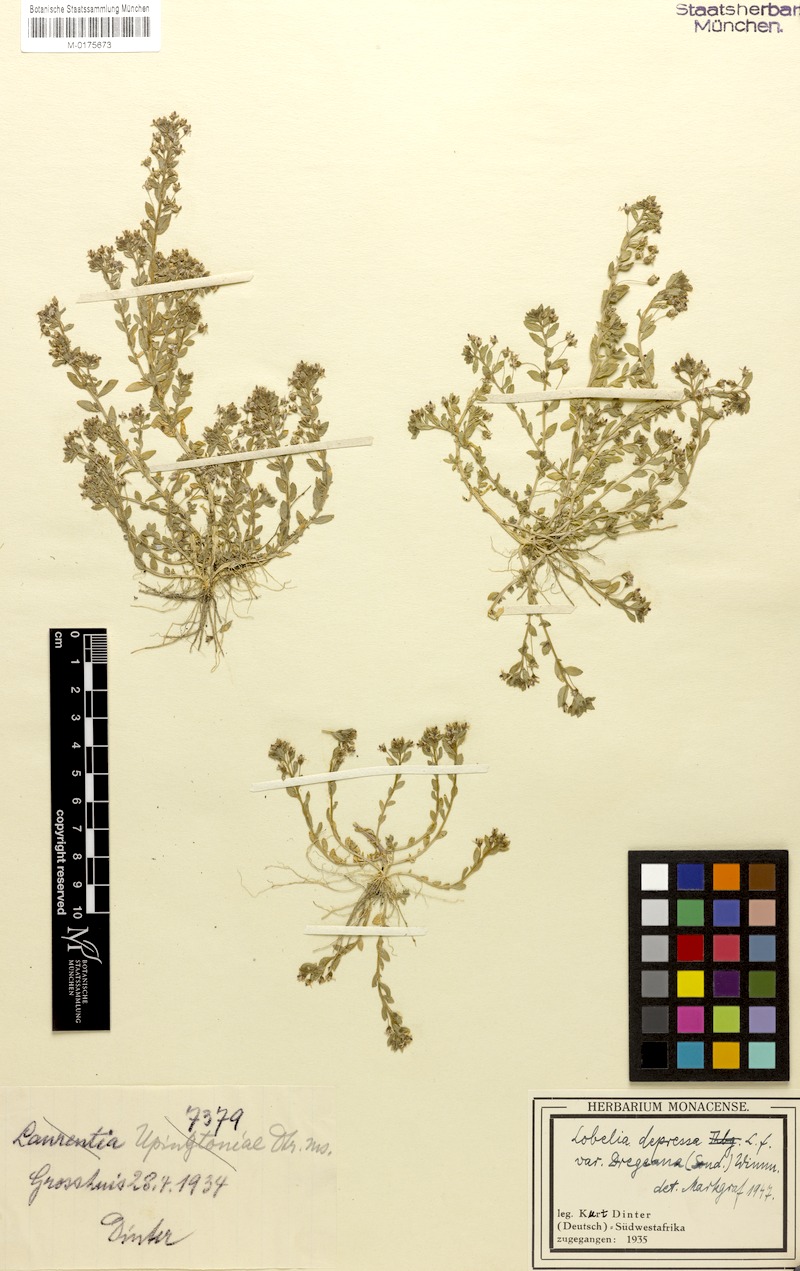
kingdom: Plantae
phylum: Tracheophyta
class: Magnoliopsida
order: Asterales
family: Campanulaceae
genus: Lobelia
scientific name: Lobelia sonderiana
